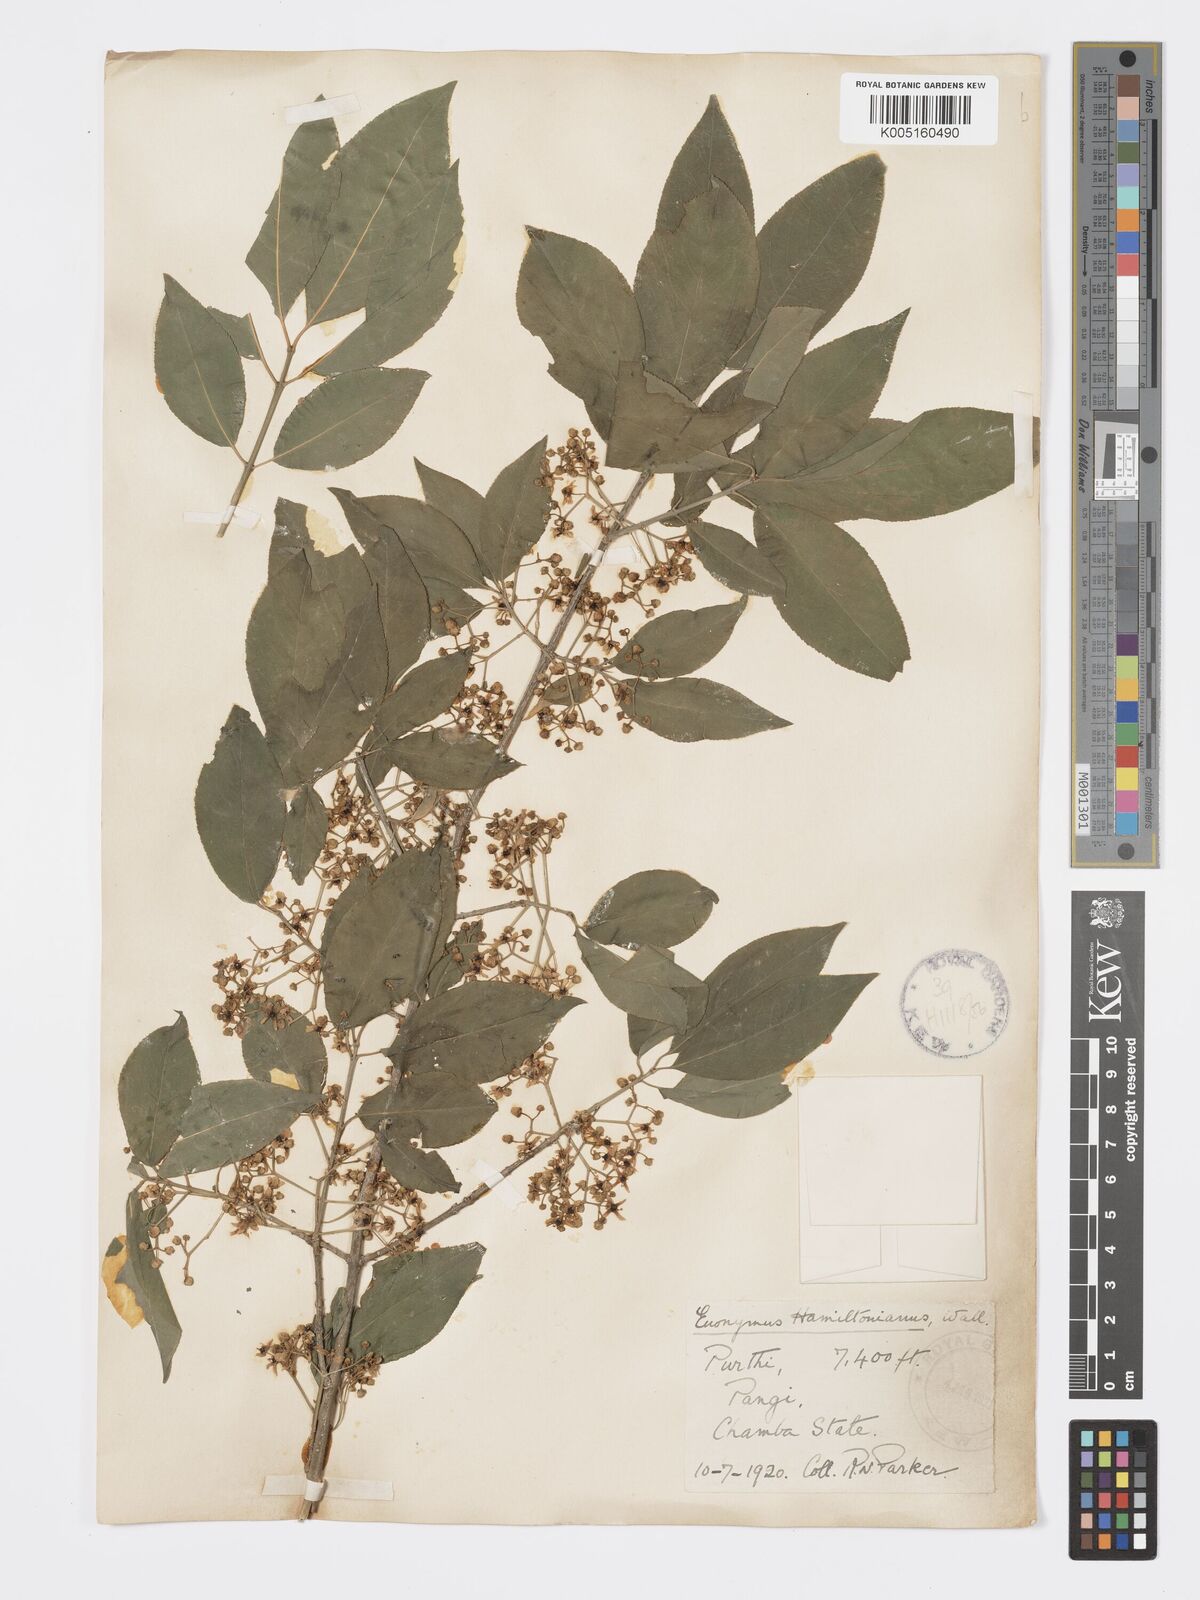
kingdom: Plantae
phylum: Tracheophyta
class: Magnoliopsida
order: Celastrales
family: Celastraceae
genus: Euonymus
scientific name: Euonymus
